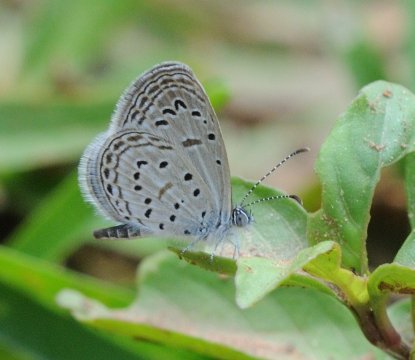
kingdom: Animalia
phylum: Arthropoda
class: Insecta
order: Lepidoptera
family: Lycaenidae
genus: Zizula
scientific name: Zizula hylax
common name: Tiny Grass Blue
